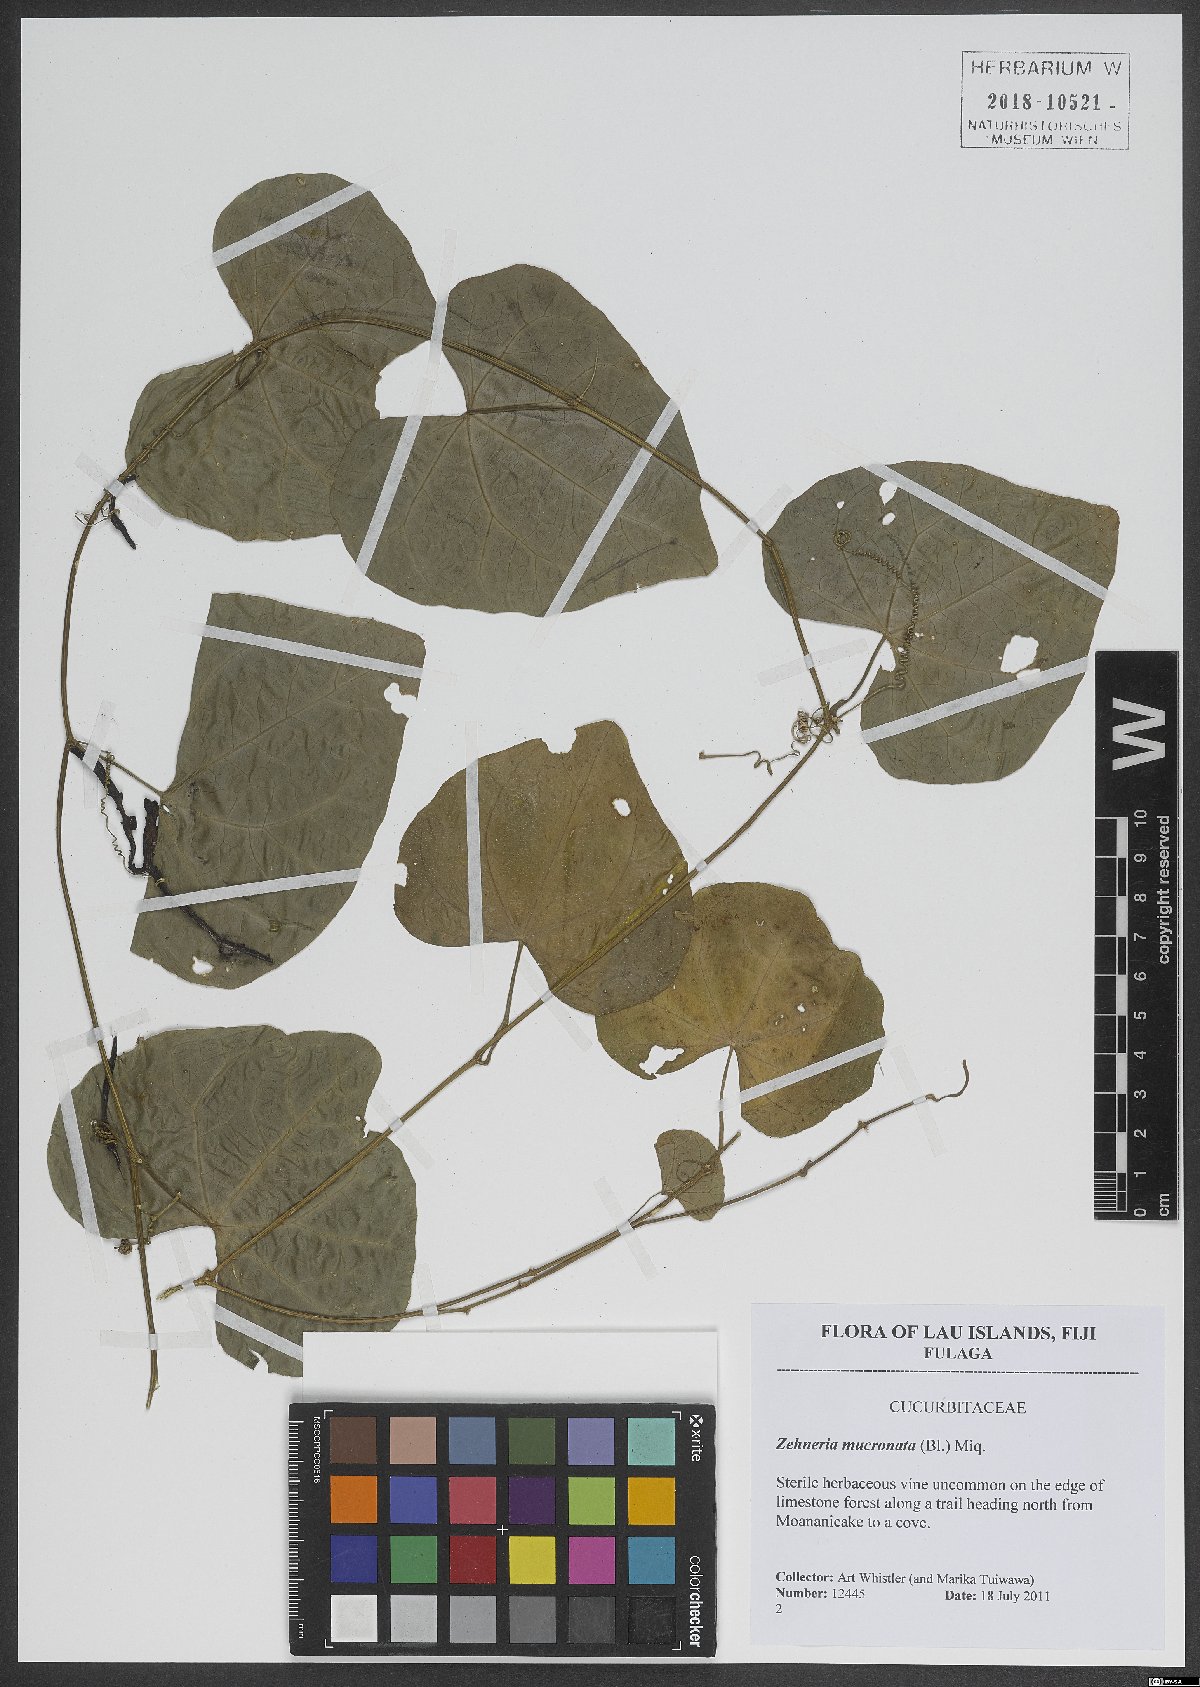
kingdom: Plantae
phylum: Tracheophyta
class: Magnoliopsida
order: Cucurbitales
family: Cucurbitaceae
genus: Zehneria
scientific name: Zehneria mucronata
